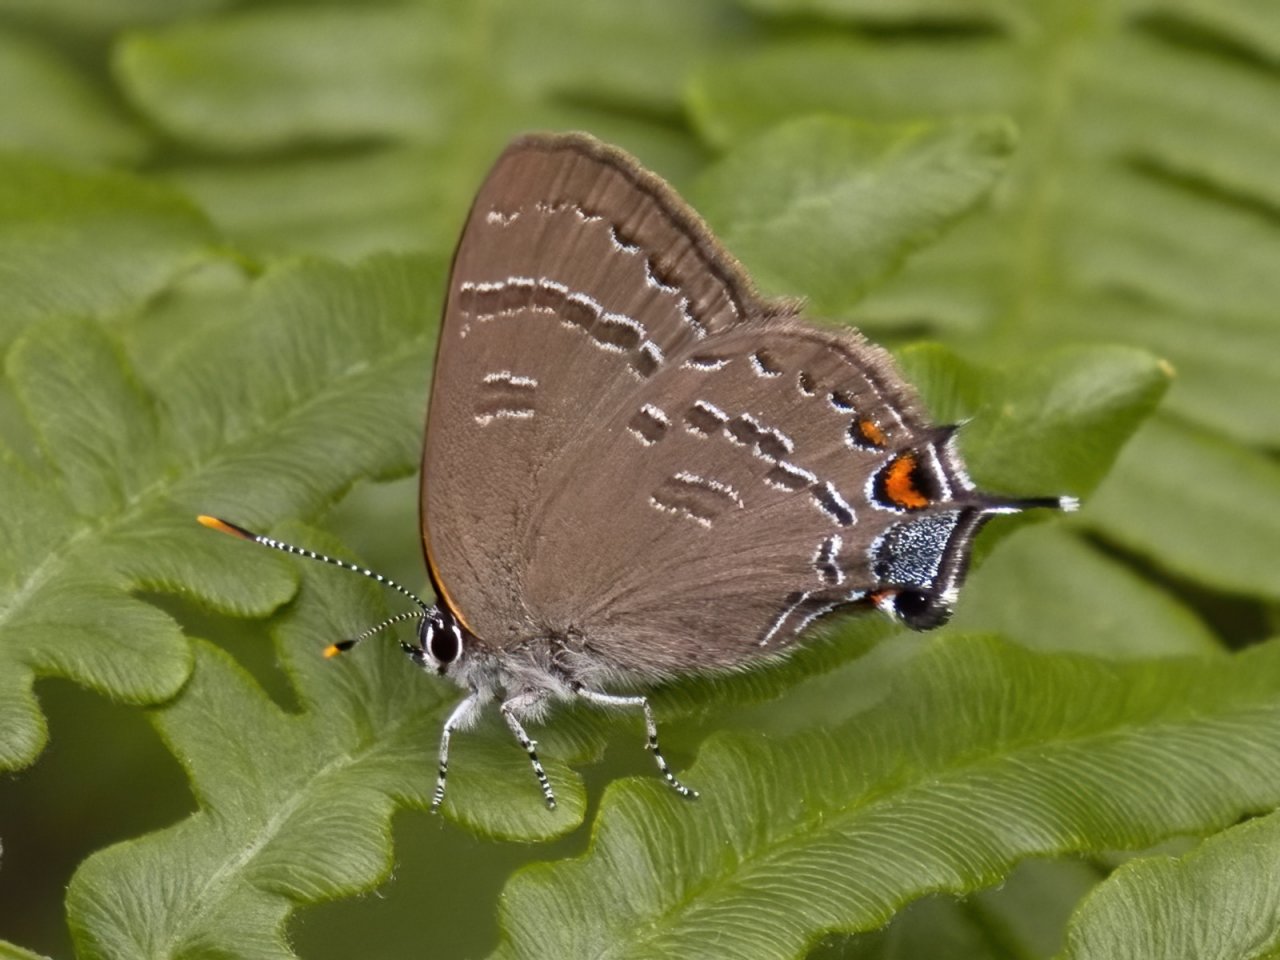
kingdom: Animalia
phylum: Arthropoda
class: Insecta
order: Lepidoptera
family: Lycaenidae
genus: Satyrium
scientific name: Satyrium calanus
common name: Banded Hairstreak
